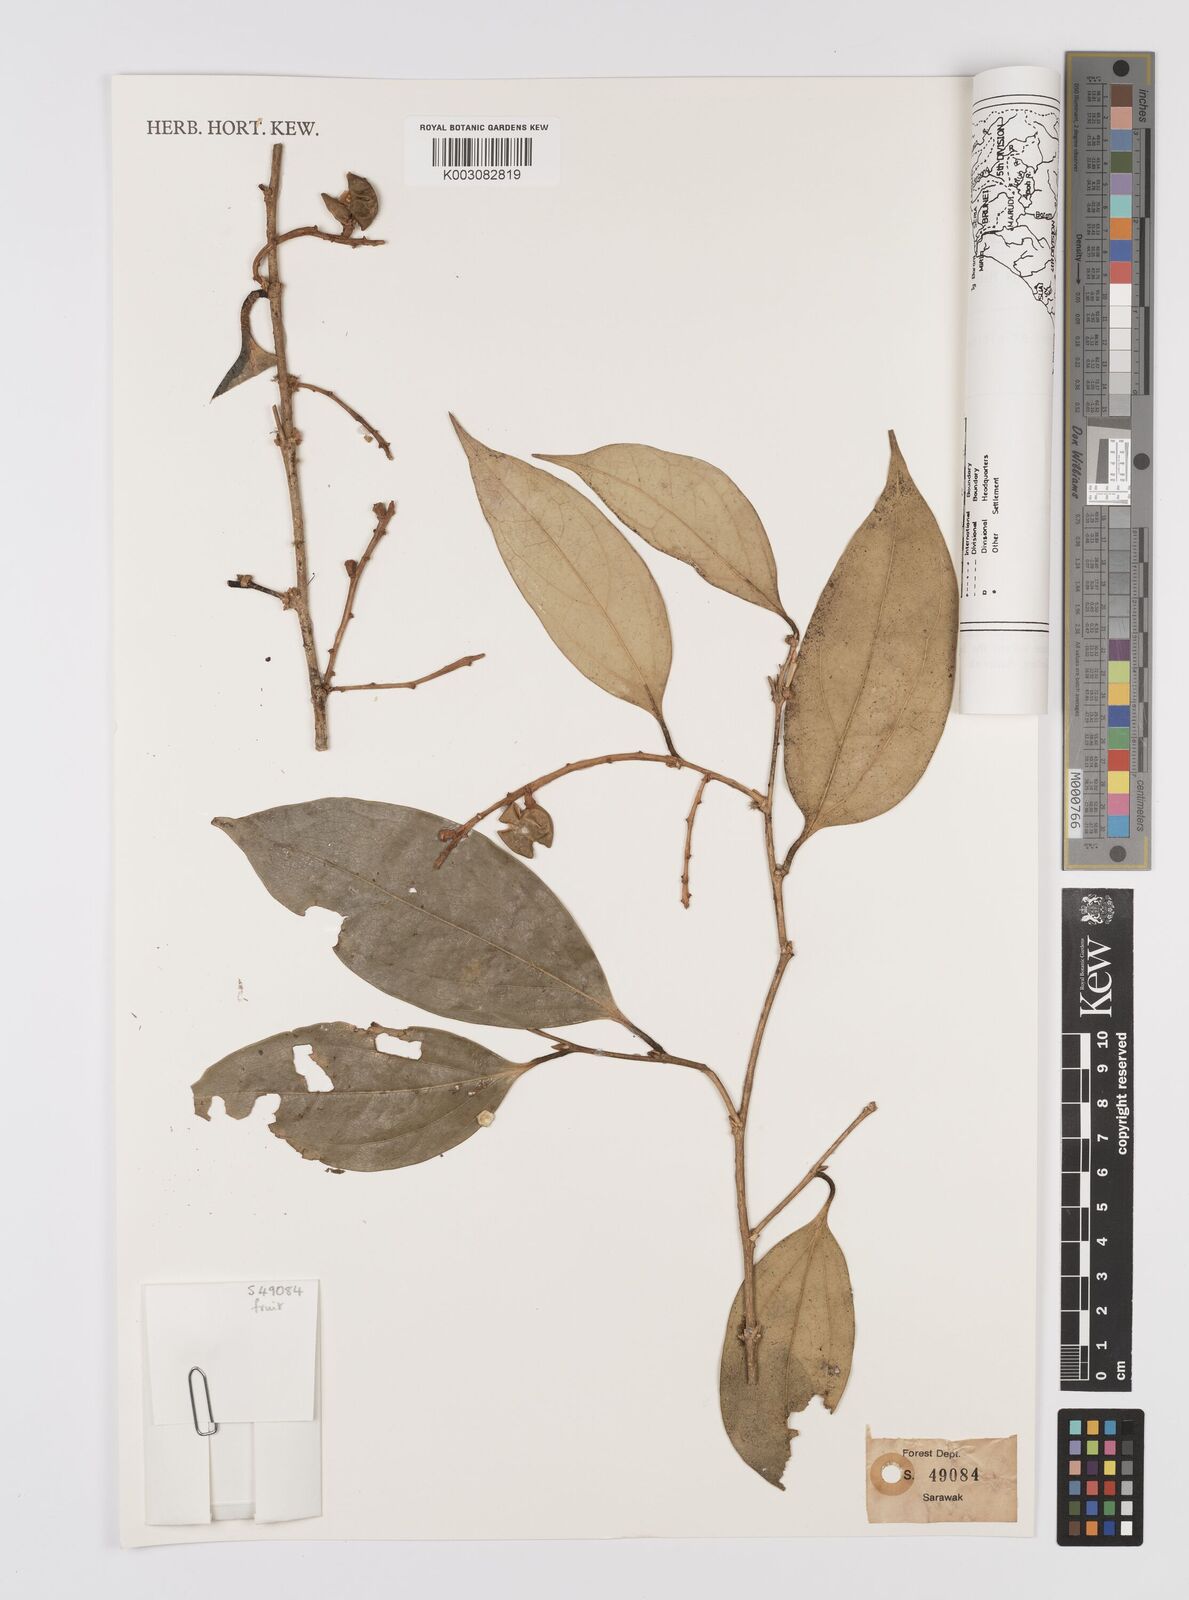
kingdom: Plantae
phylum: Tracheophyta
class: Magnoliopsida
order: Fabales
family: Polygalaceae
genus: Xanthophyllum
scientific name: Xanthophyllum penibukanense
